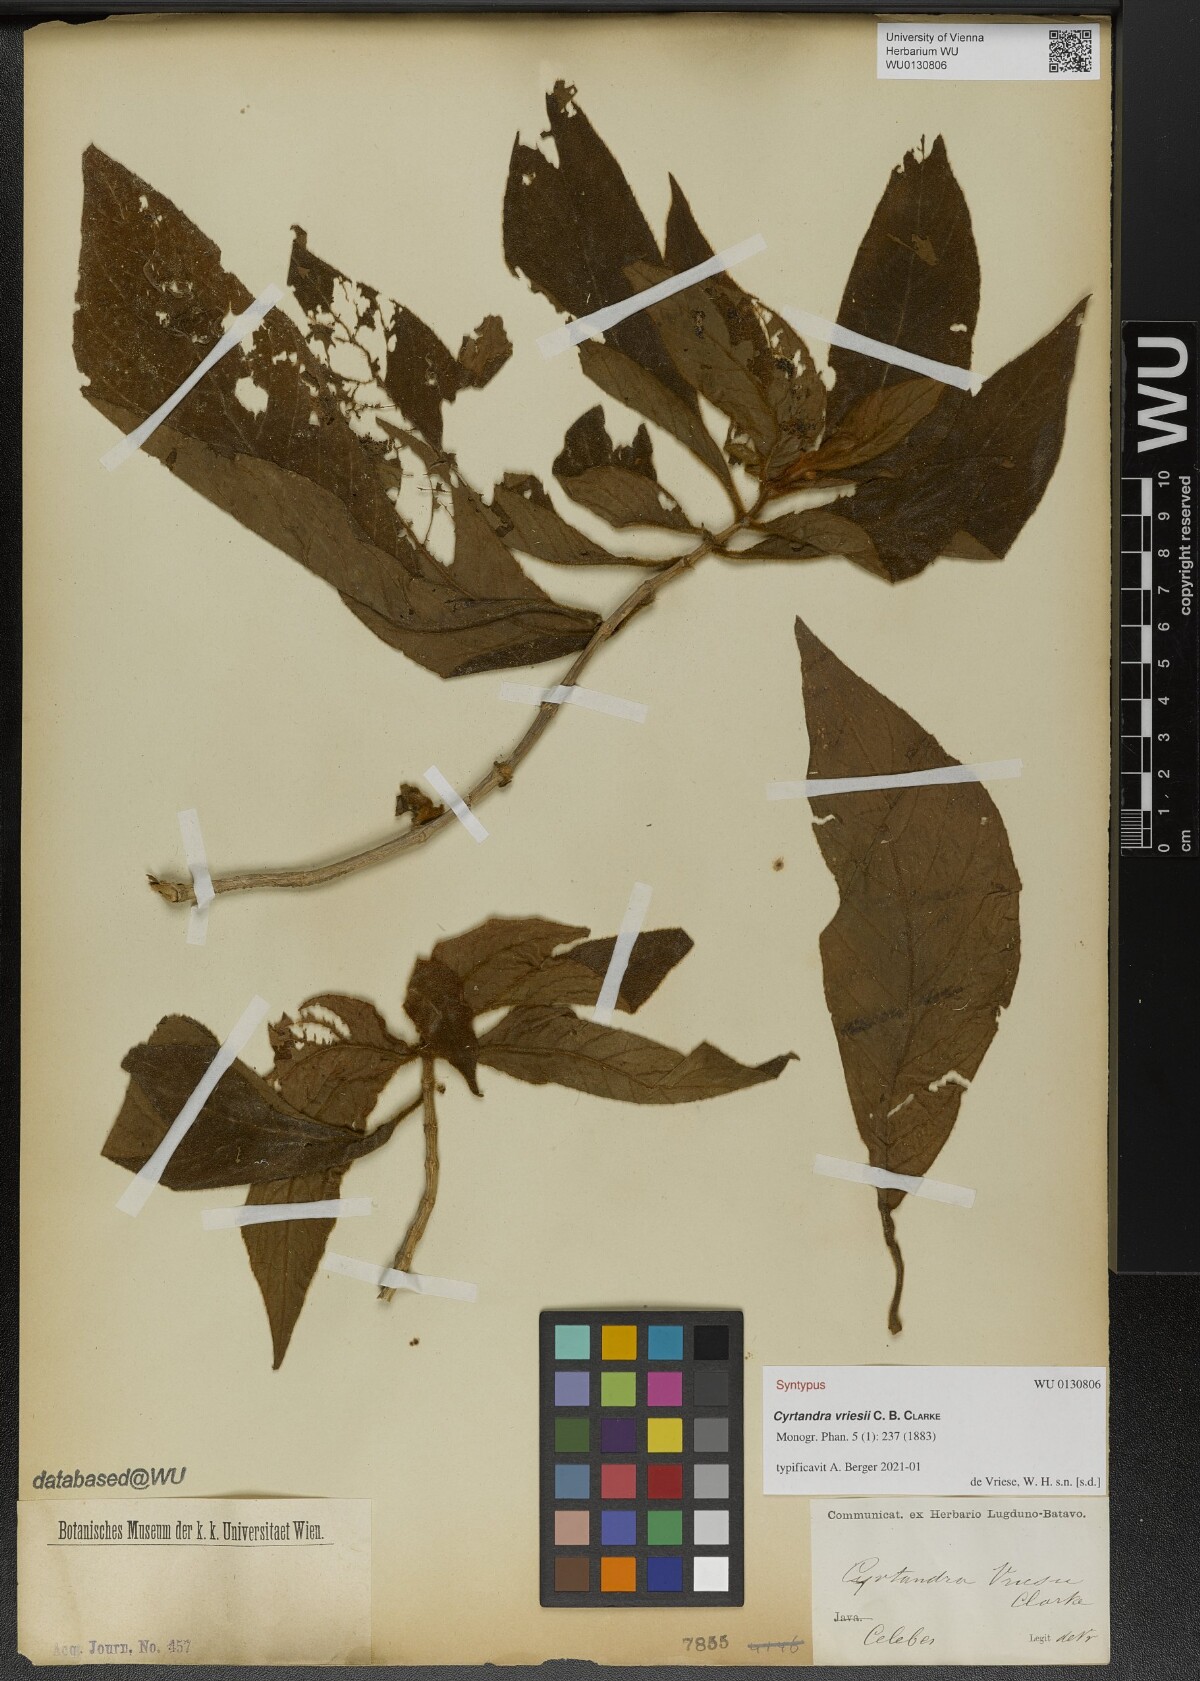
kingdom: Plantae
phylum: Tracheophyta
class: Magnoliopsida
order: Lamiales
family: Gesneriaceae
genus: Cyrtandra
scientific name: Cyrtandra vriesii
